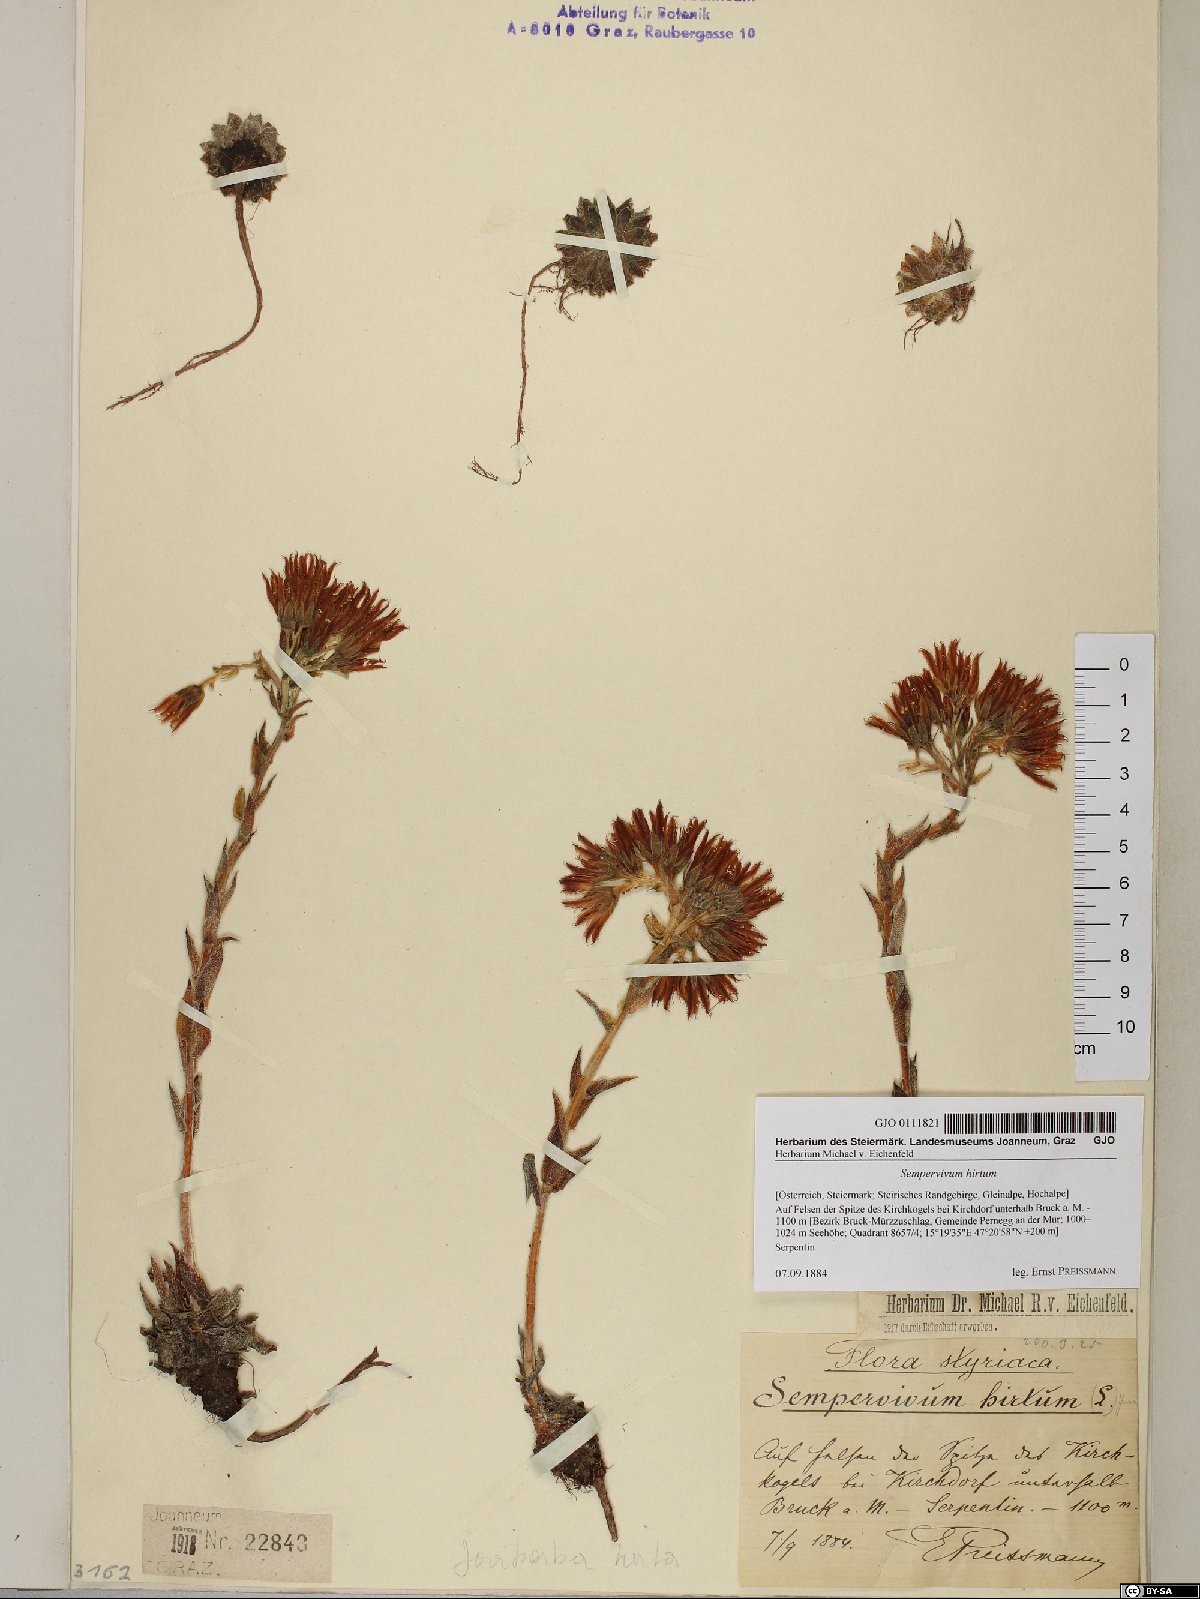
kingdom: Plantae
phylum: Tracheophyta
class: Magnoliopsida
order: Saxifragales
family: Crassulaceae
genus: Sempervivum
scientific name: Sempervivum globiferum
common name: Rolling hen-and-chicks
